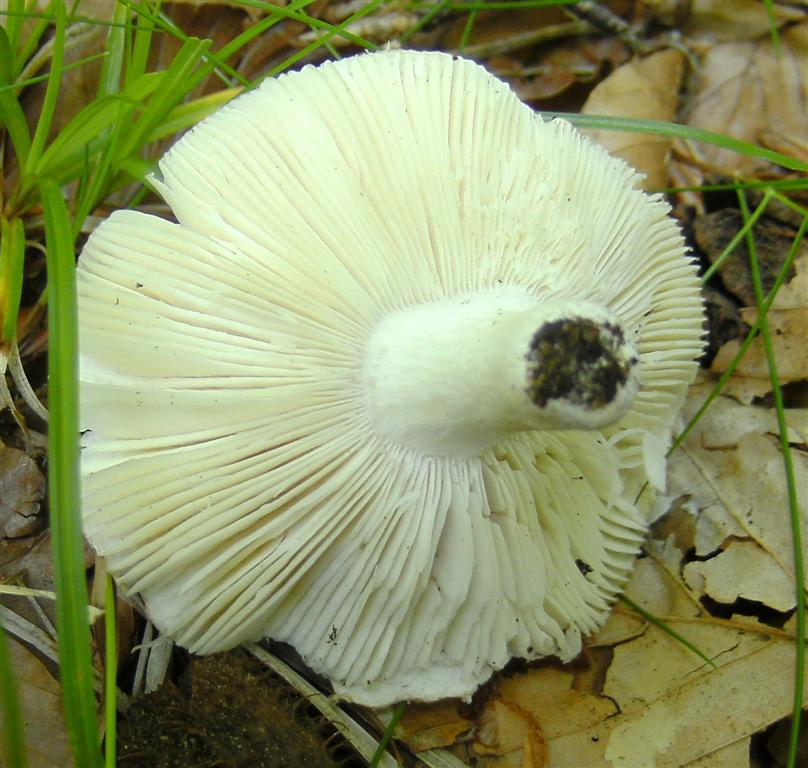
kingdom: Fungi
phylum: Basidiomycota
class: Agaricomycetes
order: Russulales
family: Russulaceae
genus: Russula
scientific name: Russula roseoaurantia
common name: kornet skørhat
